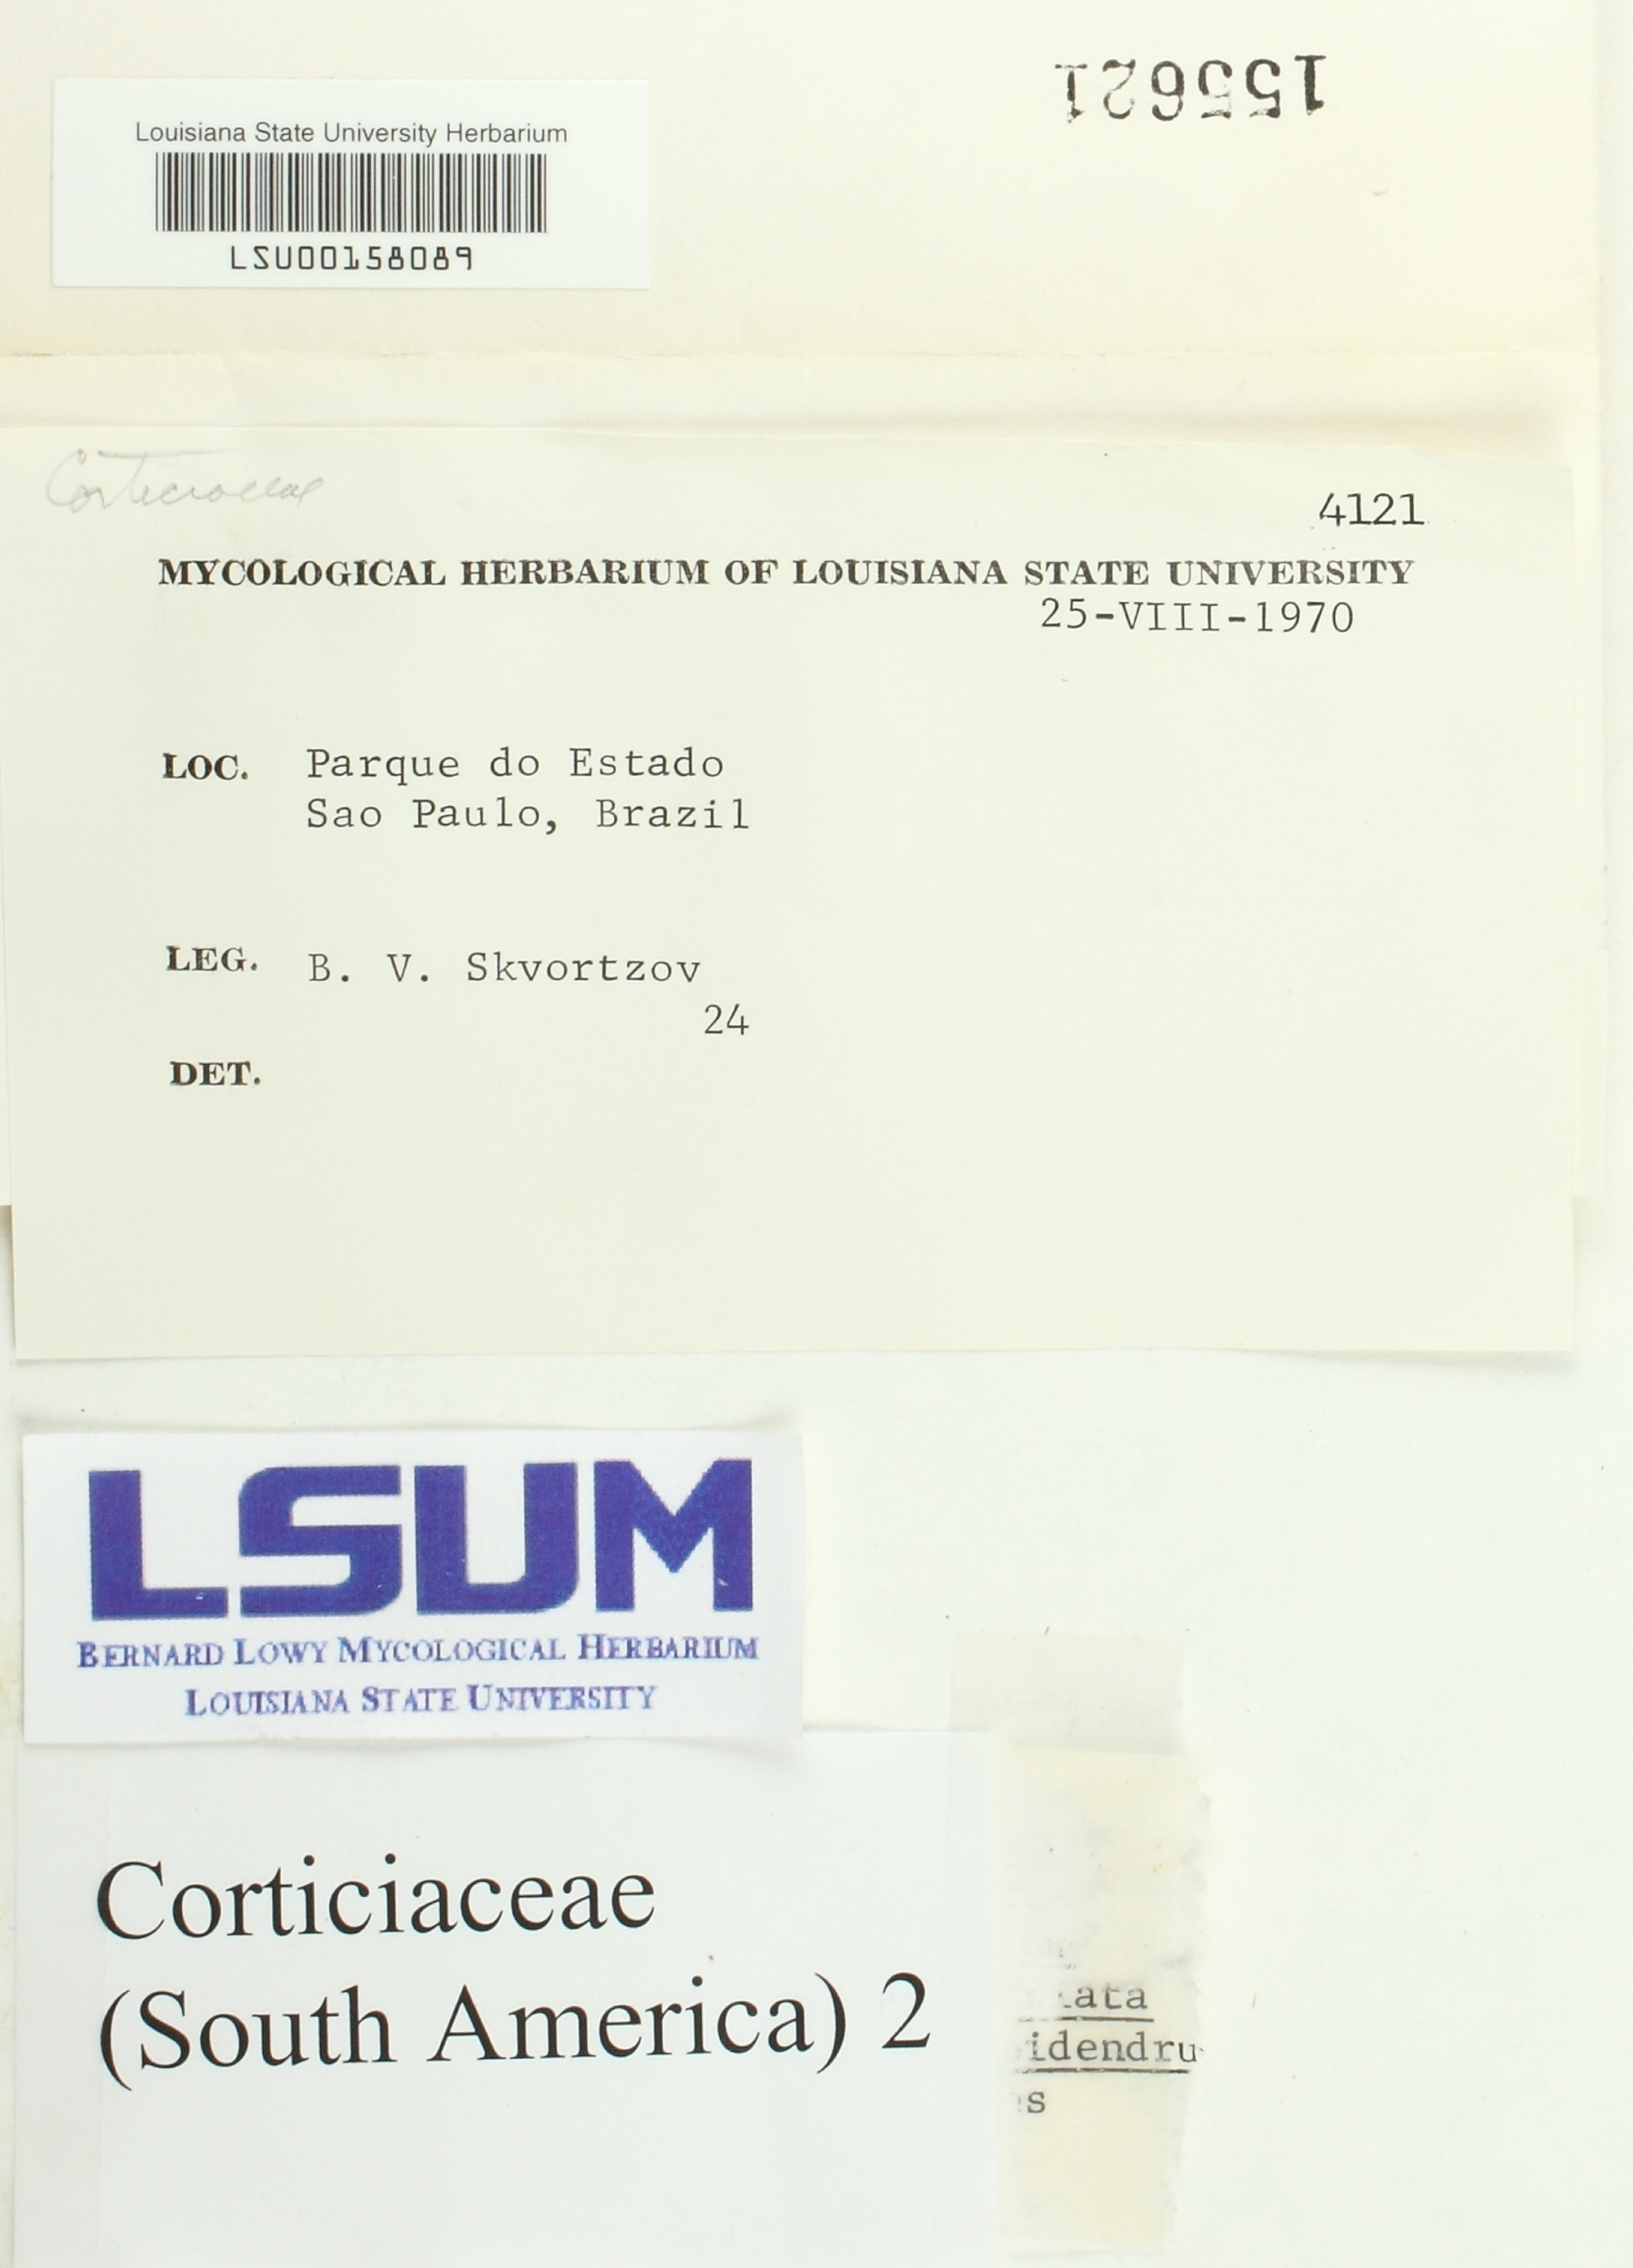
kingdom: Fungi
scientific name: Fungi
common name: Fungi
